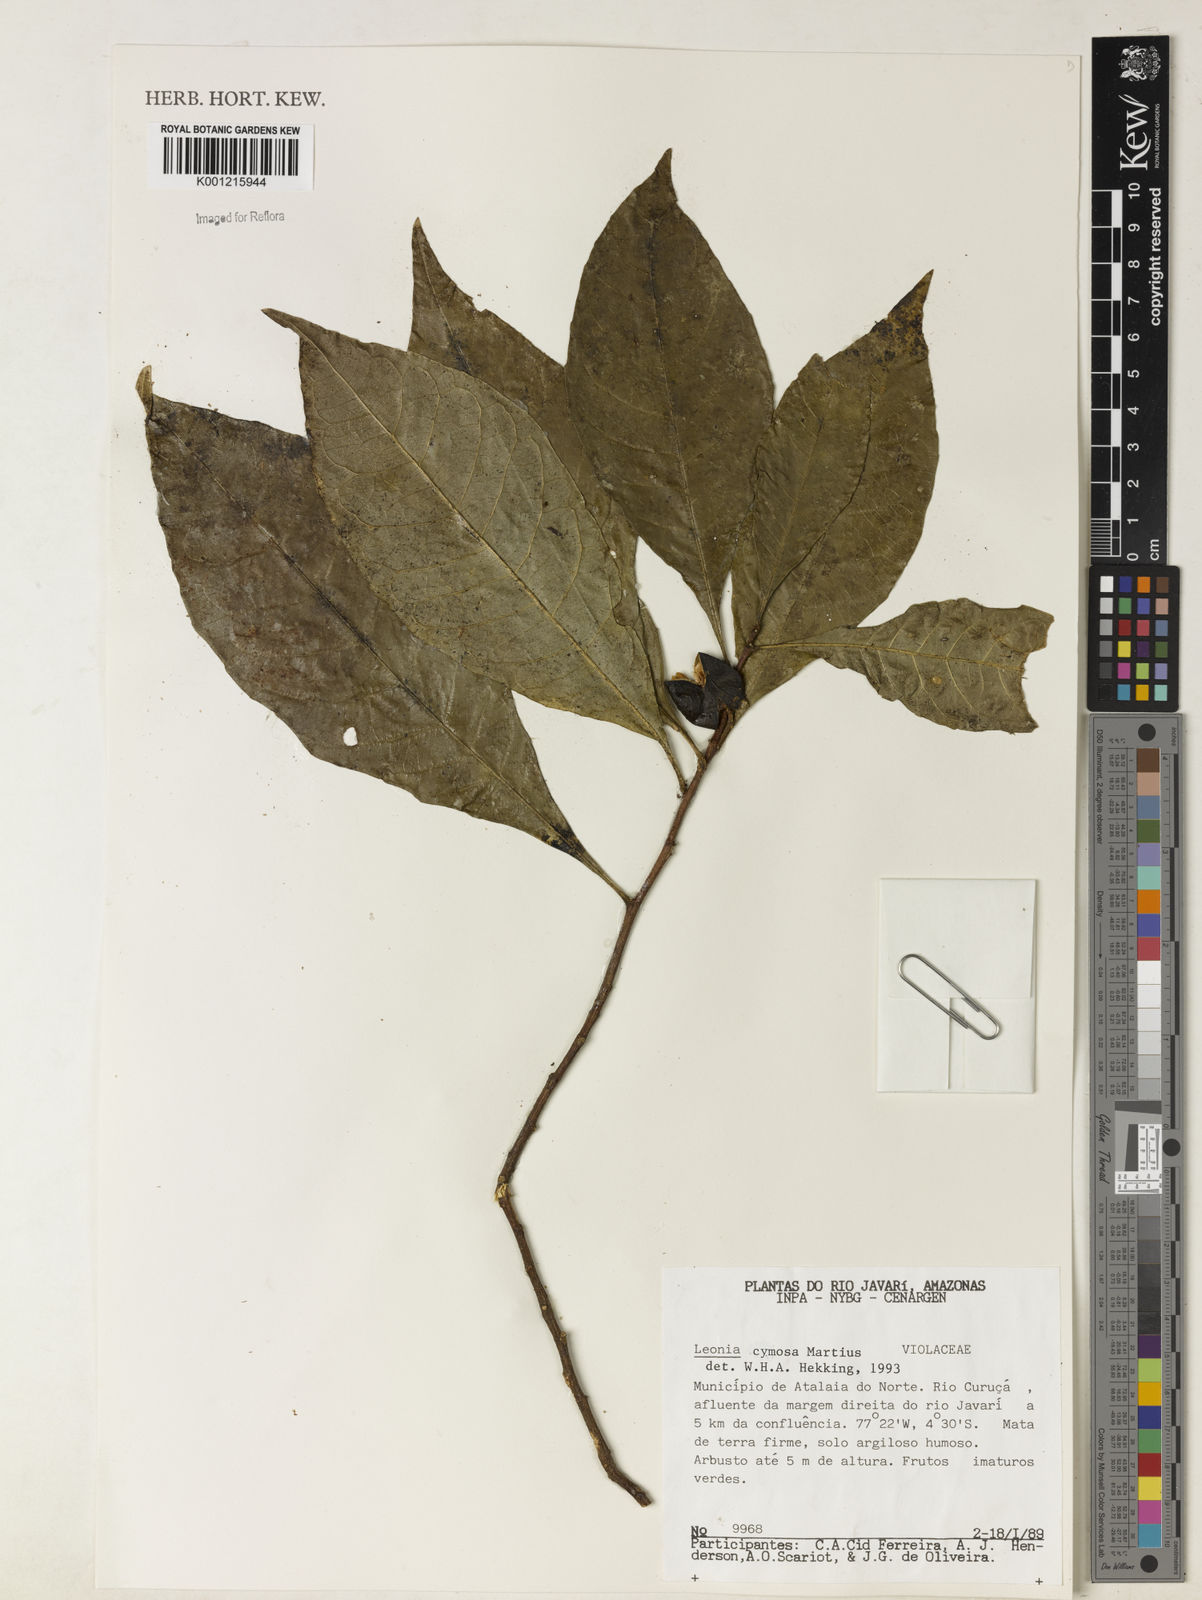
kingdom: Plantae
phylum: Tracheophyta
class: Magnoliopsida
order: Malpighiales
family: Violaceae
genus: Leonia
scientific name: Leonia cymosa
